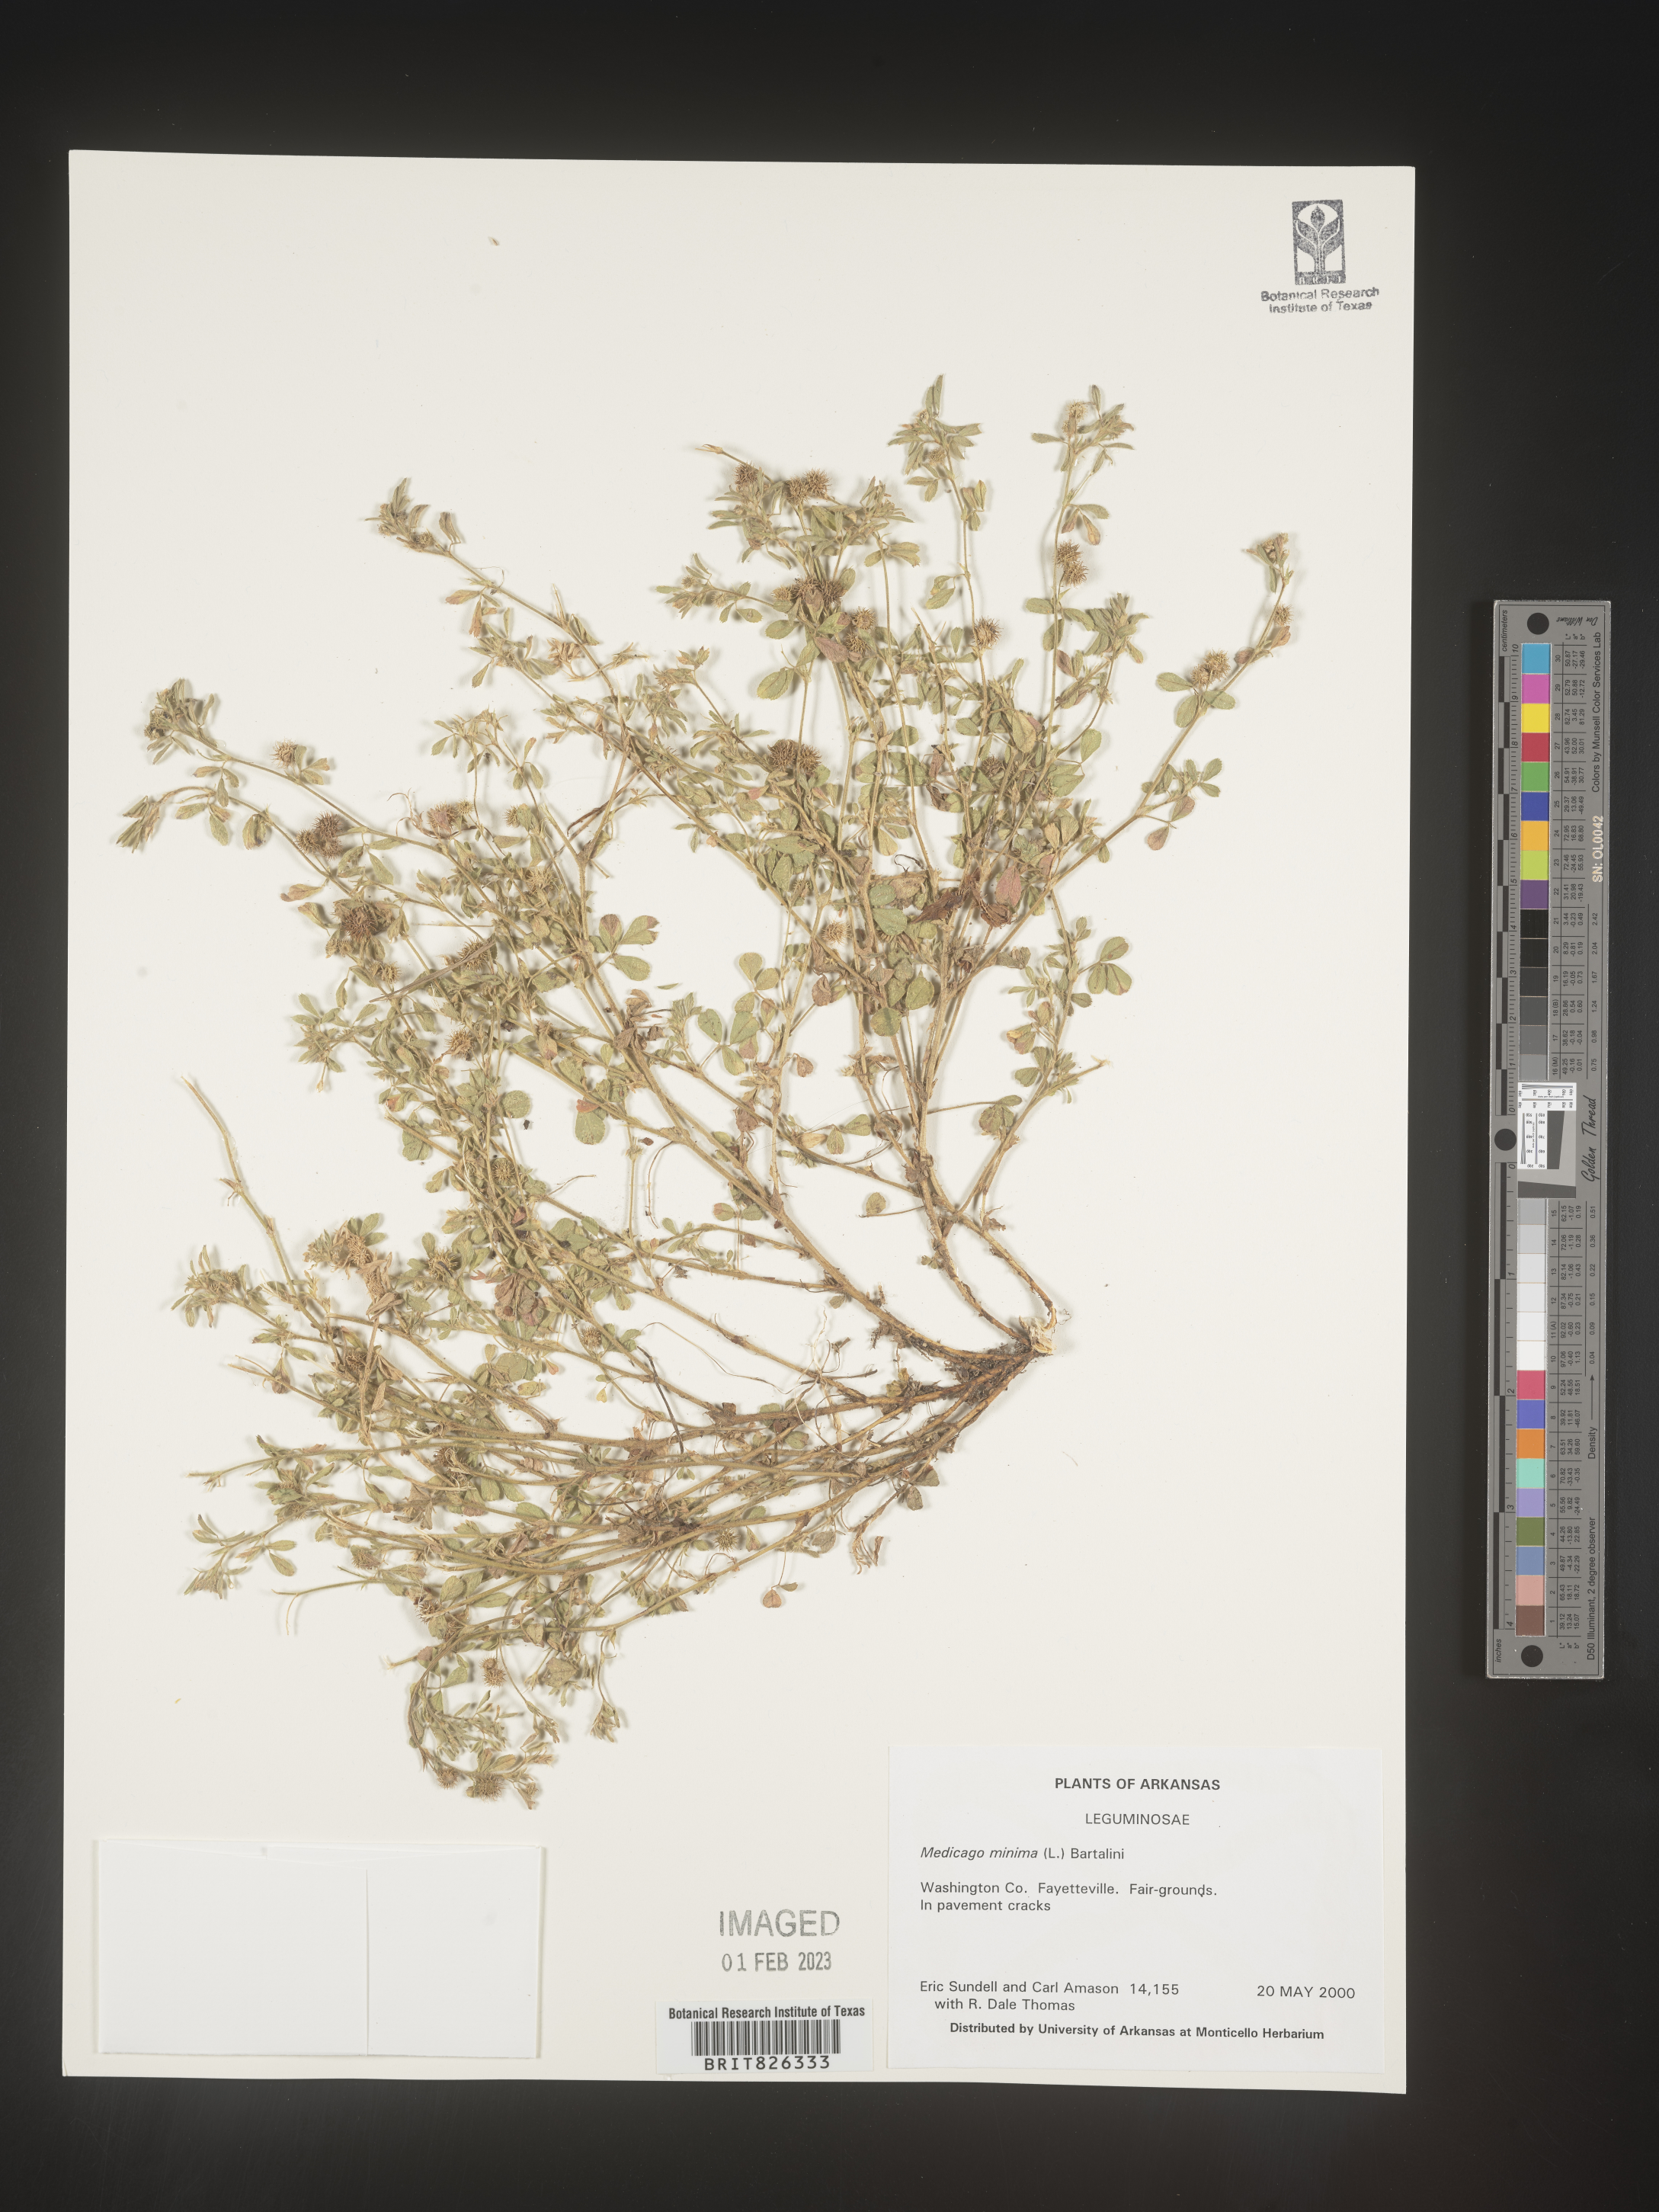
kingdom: Plantae
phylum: Tracheophyta
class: Magnoliopsida
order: Fabales
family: Fabaceae
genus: Medicago
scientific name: Medicago minima
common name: Little bur-clover
